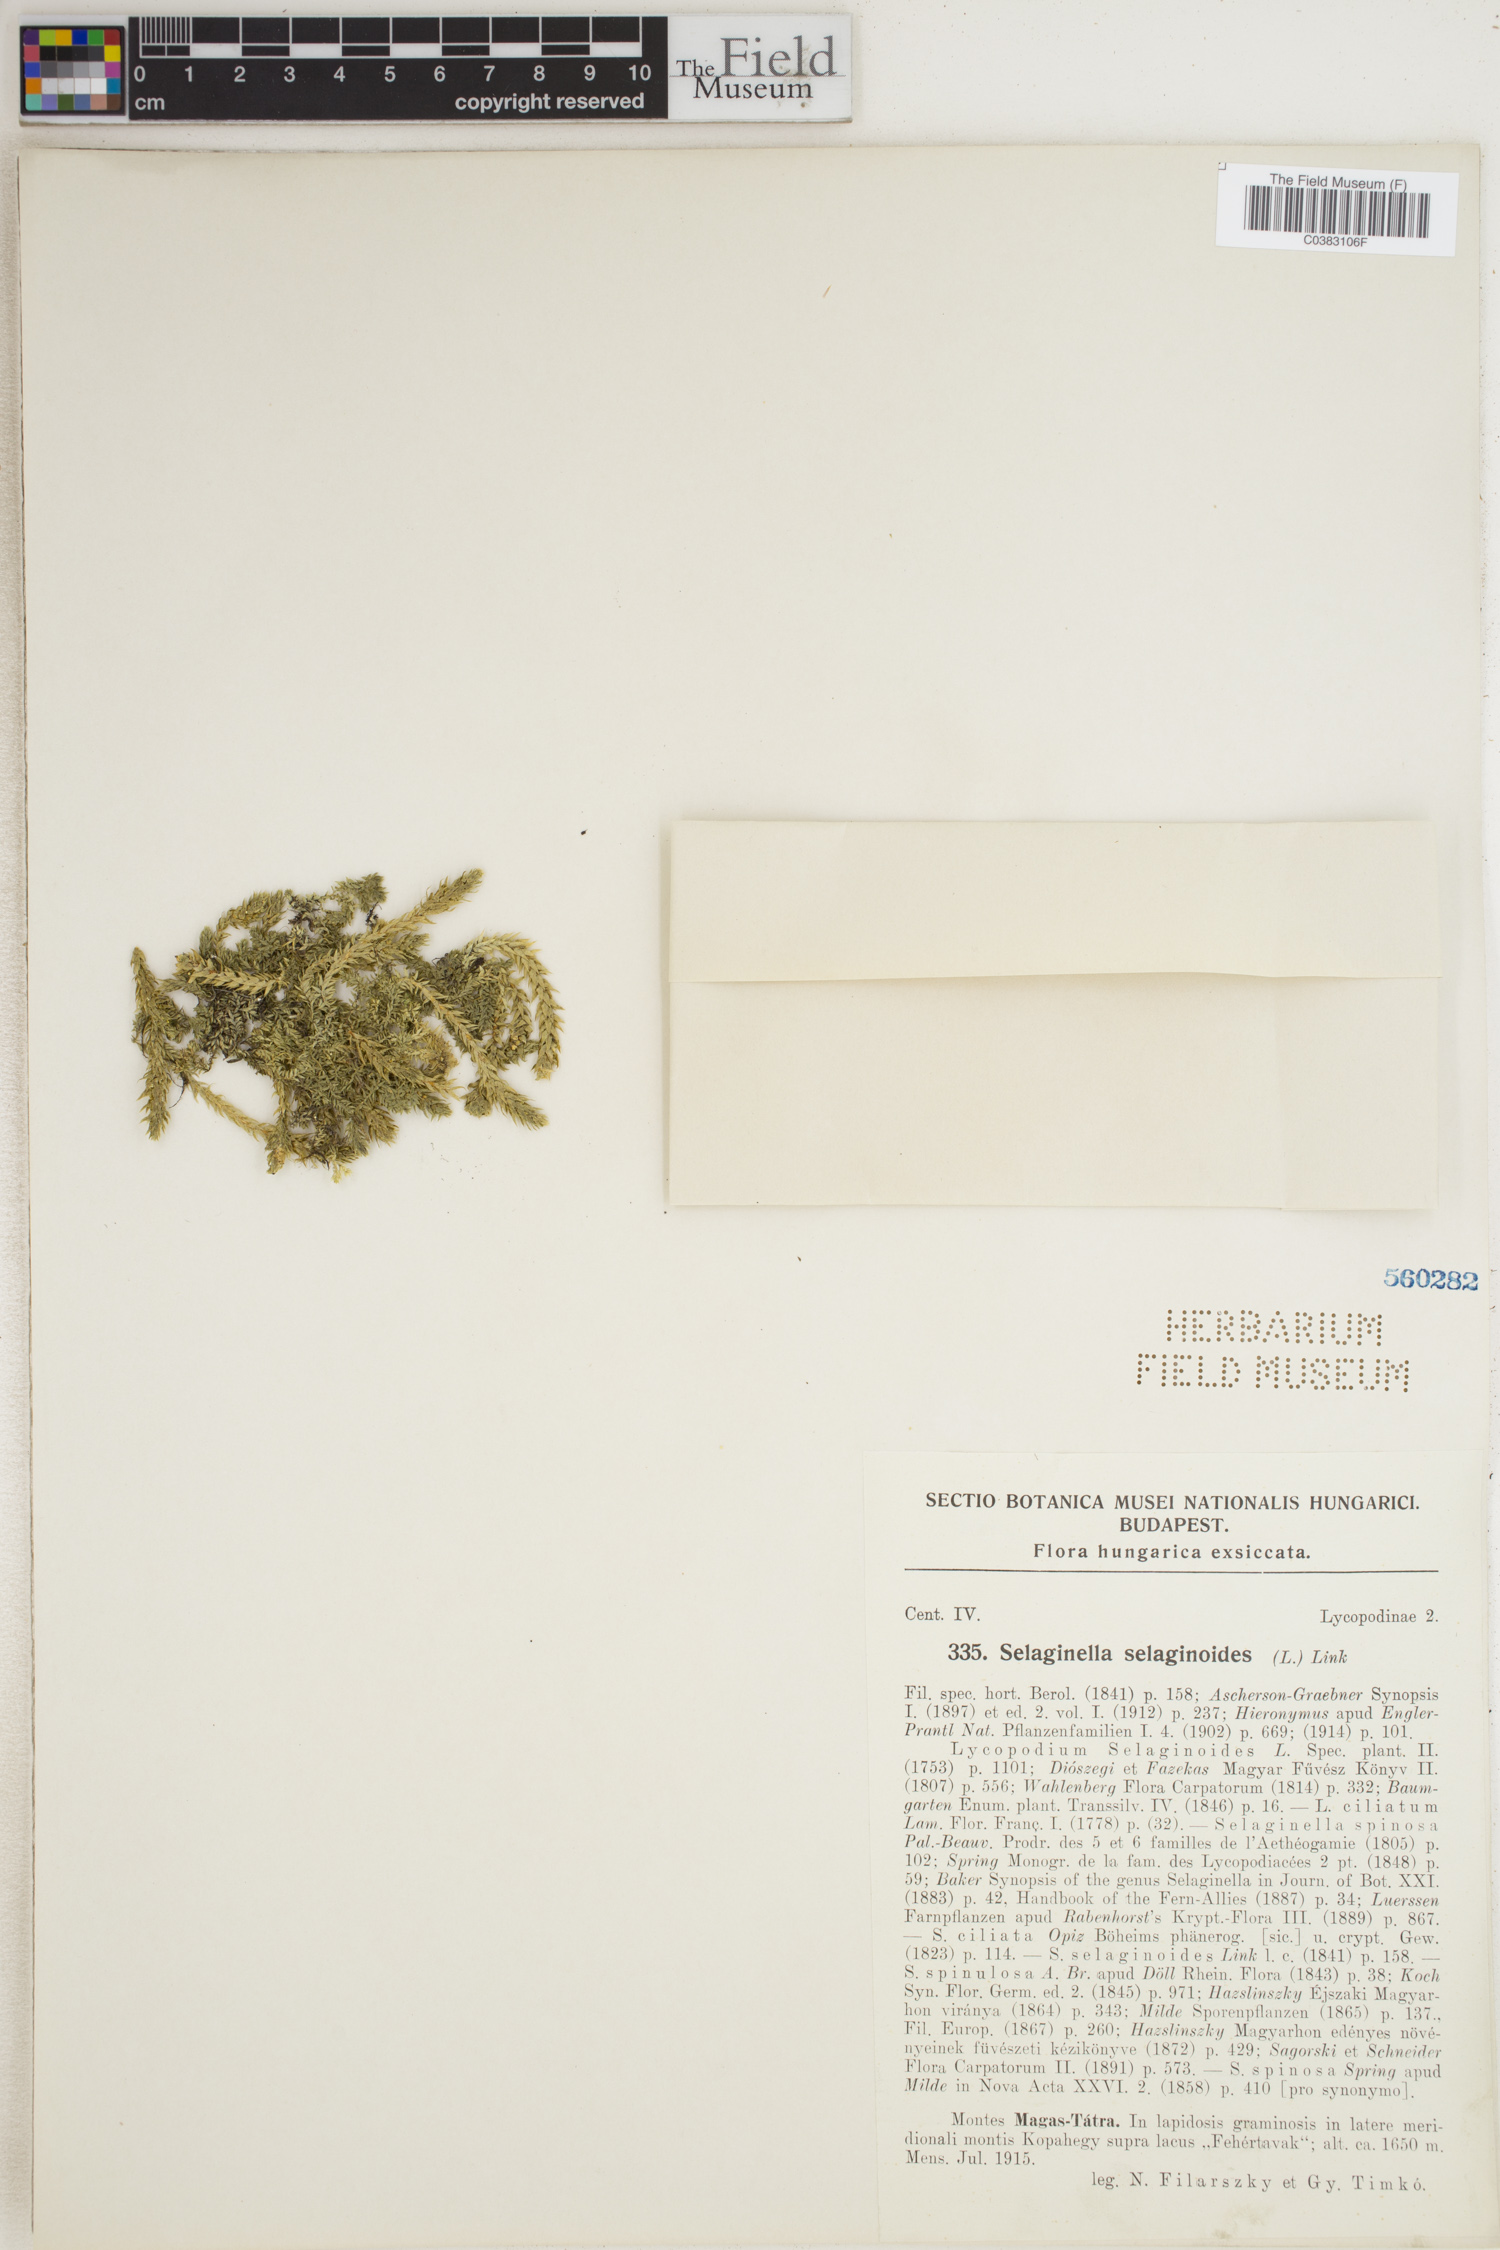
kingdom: Plantae
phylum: Tracheophyta
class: Lycopodiopsida
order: Selaginellales
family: Selaginellaceae
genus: Selaginella
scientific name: Selaginella selaginoides
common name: Prickly mountain-moss
